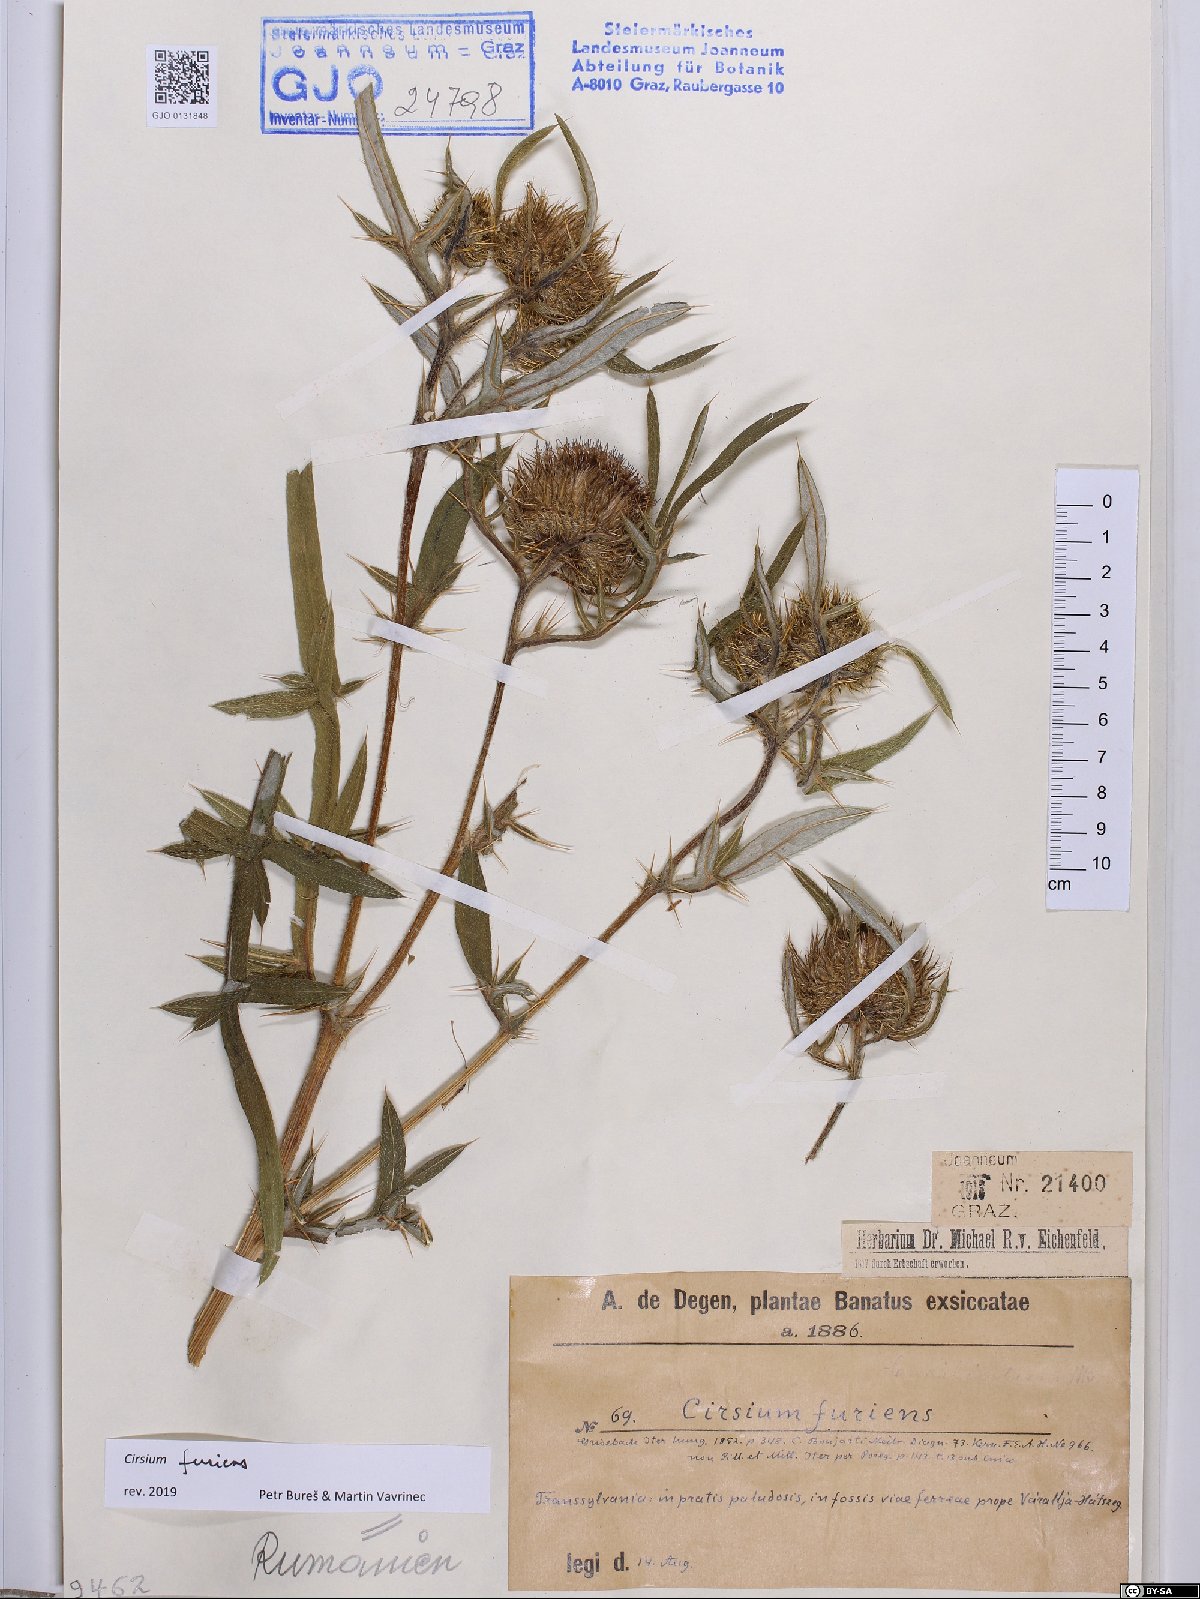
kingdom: Plantae
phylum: Tracheophyta
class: Magnoliopsida
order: Asterales
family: Asteraceae
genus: Lophiolepis
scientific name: Lophiolepis furiens
